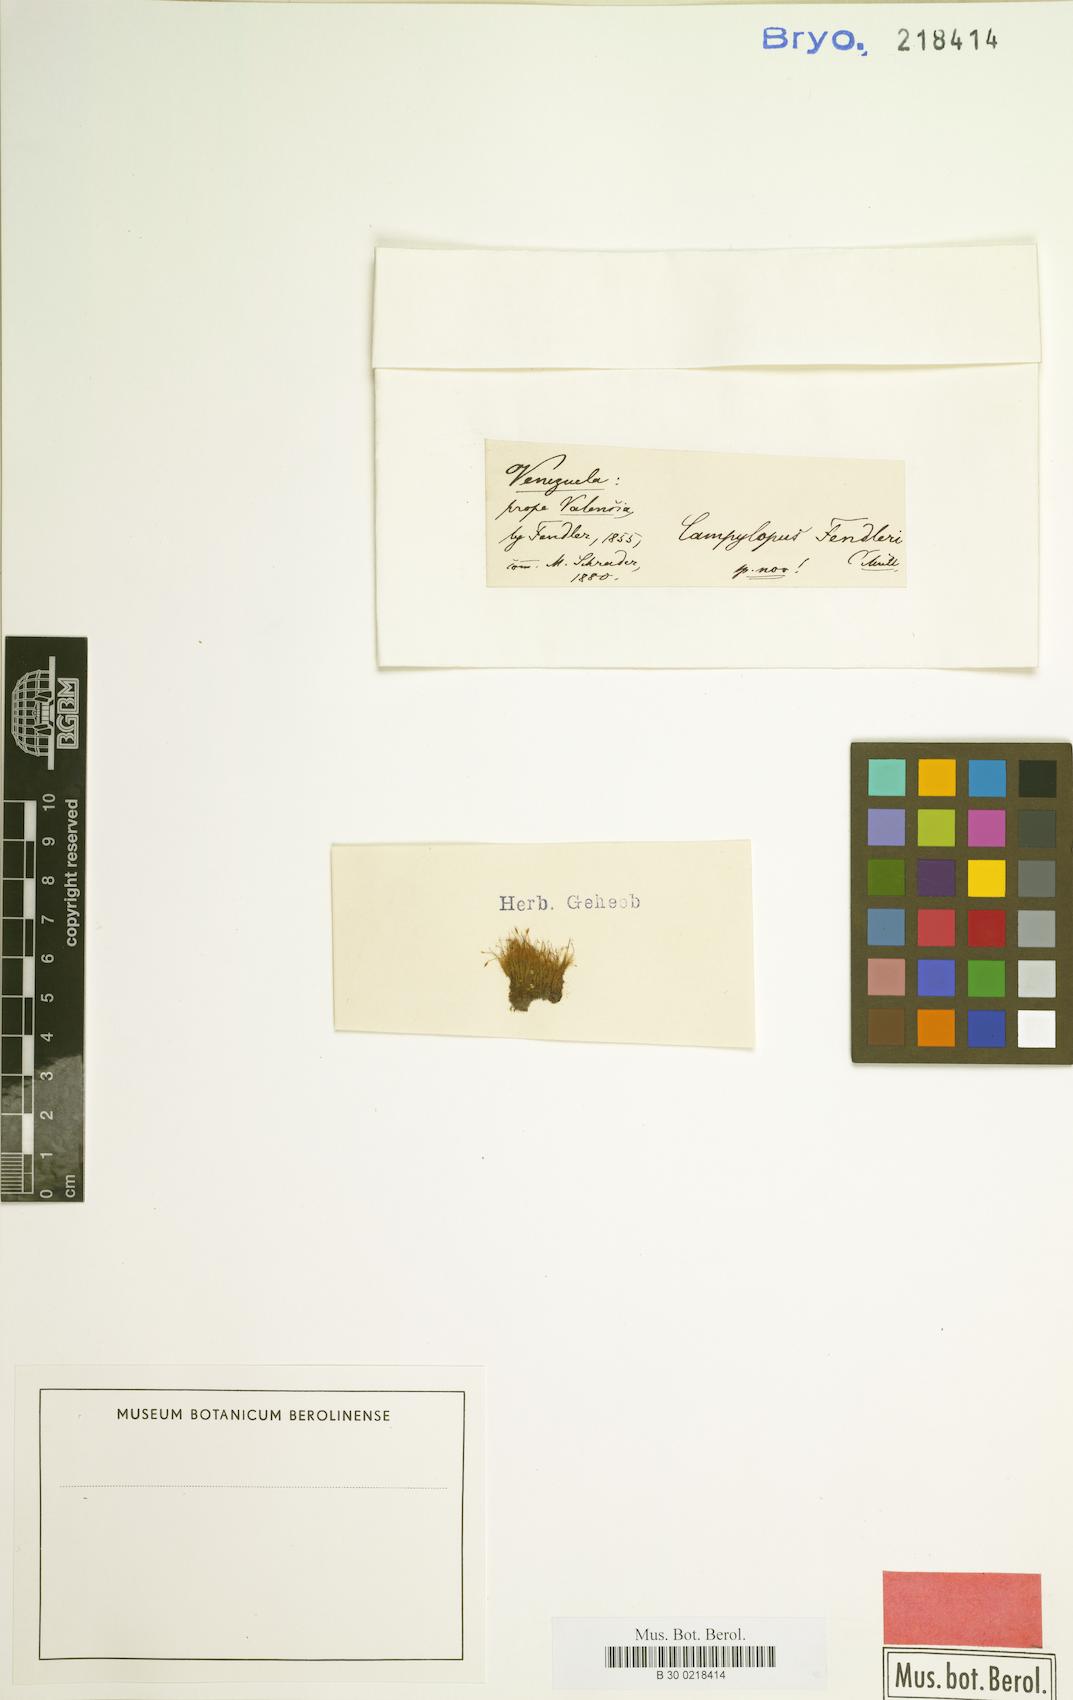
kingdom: Plantae
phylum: Bryophyta
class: Bryopsida
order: Dicranales
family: Leucobryaceae
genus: Campylopus
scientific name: Campylopus pauper
